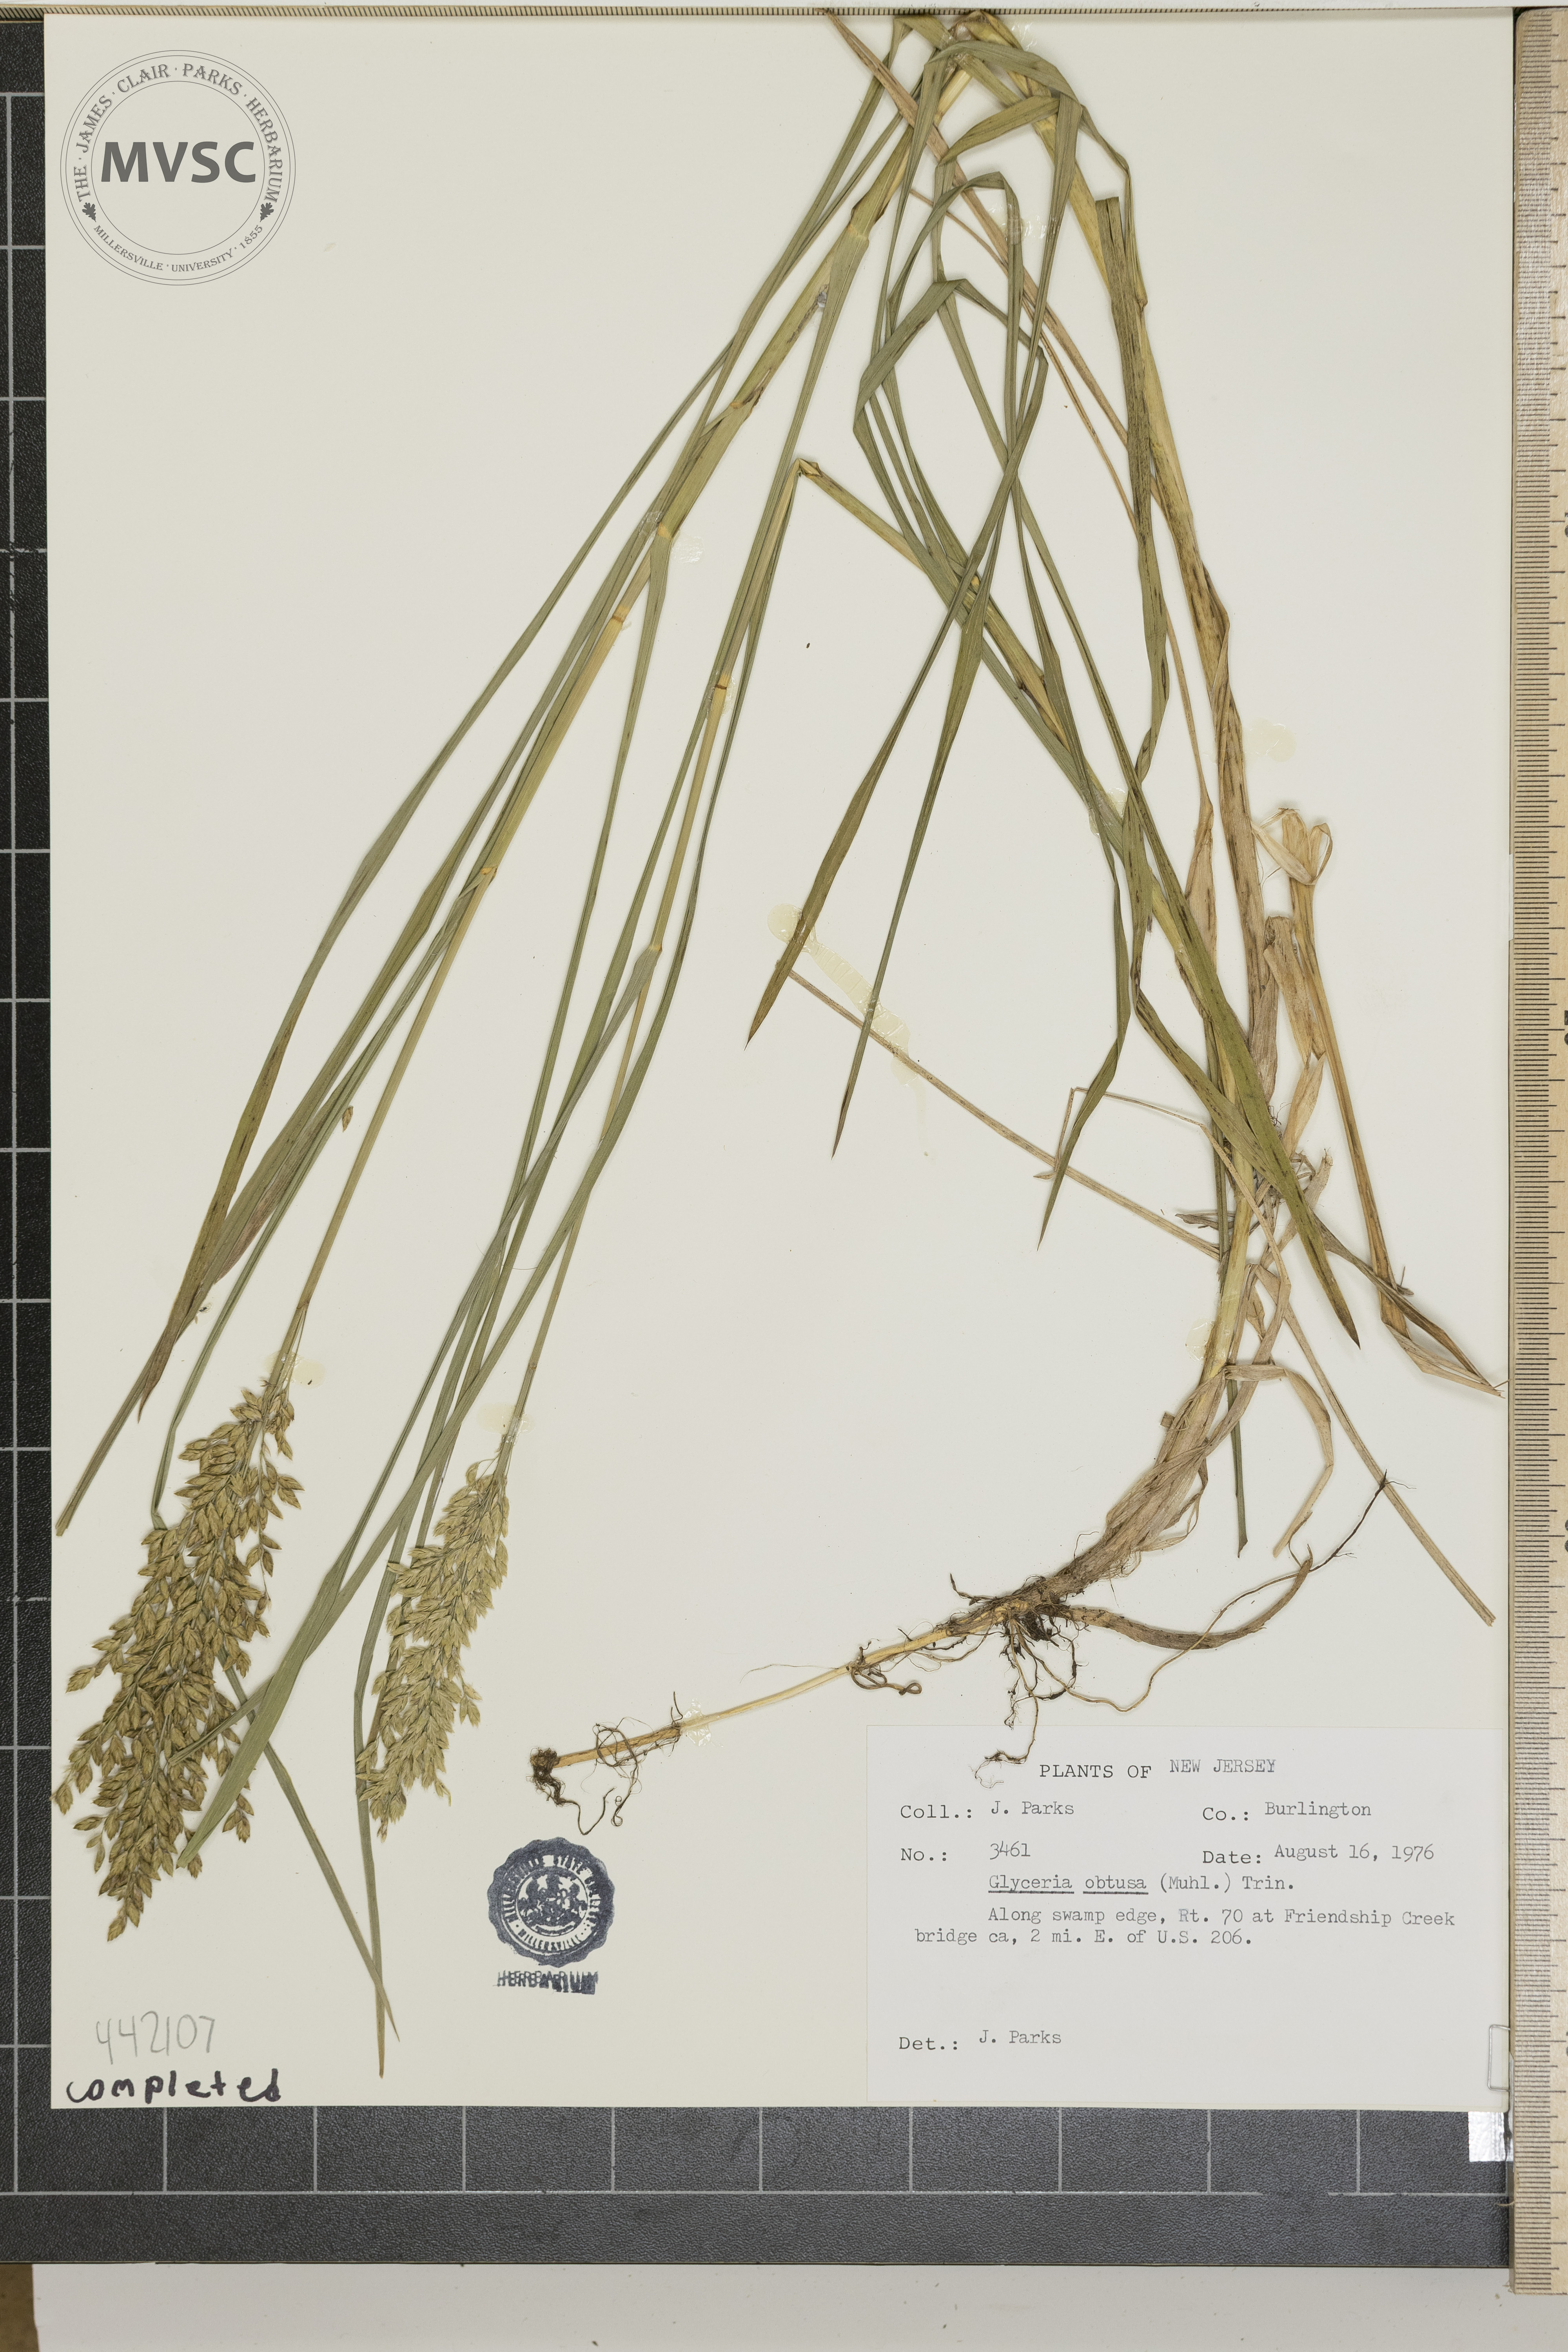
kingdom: Plantae
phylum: Tracheophyta
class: Liliopsida
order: Poales
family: Poaceae
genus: Glyceria
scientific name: Glyceria obtusa
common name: Atlantic mannagrass
